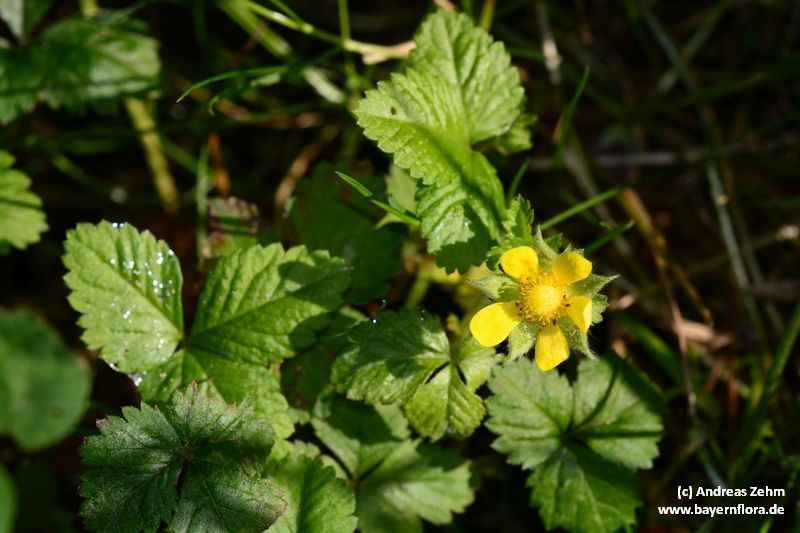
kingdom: Plantae
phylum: Tracheophyta
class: Magnoliopsida
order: Rosales
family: Rosaceae
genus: Potentilla
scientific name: Potentilla indica
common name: Yellow-flowered strawberry
